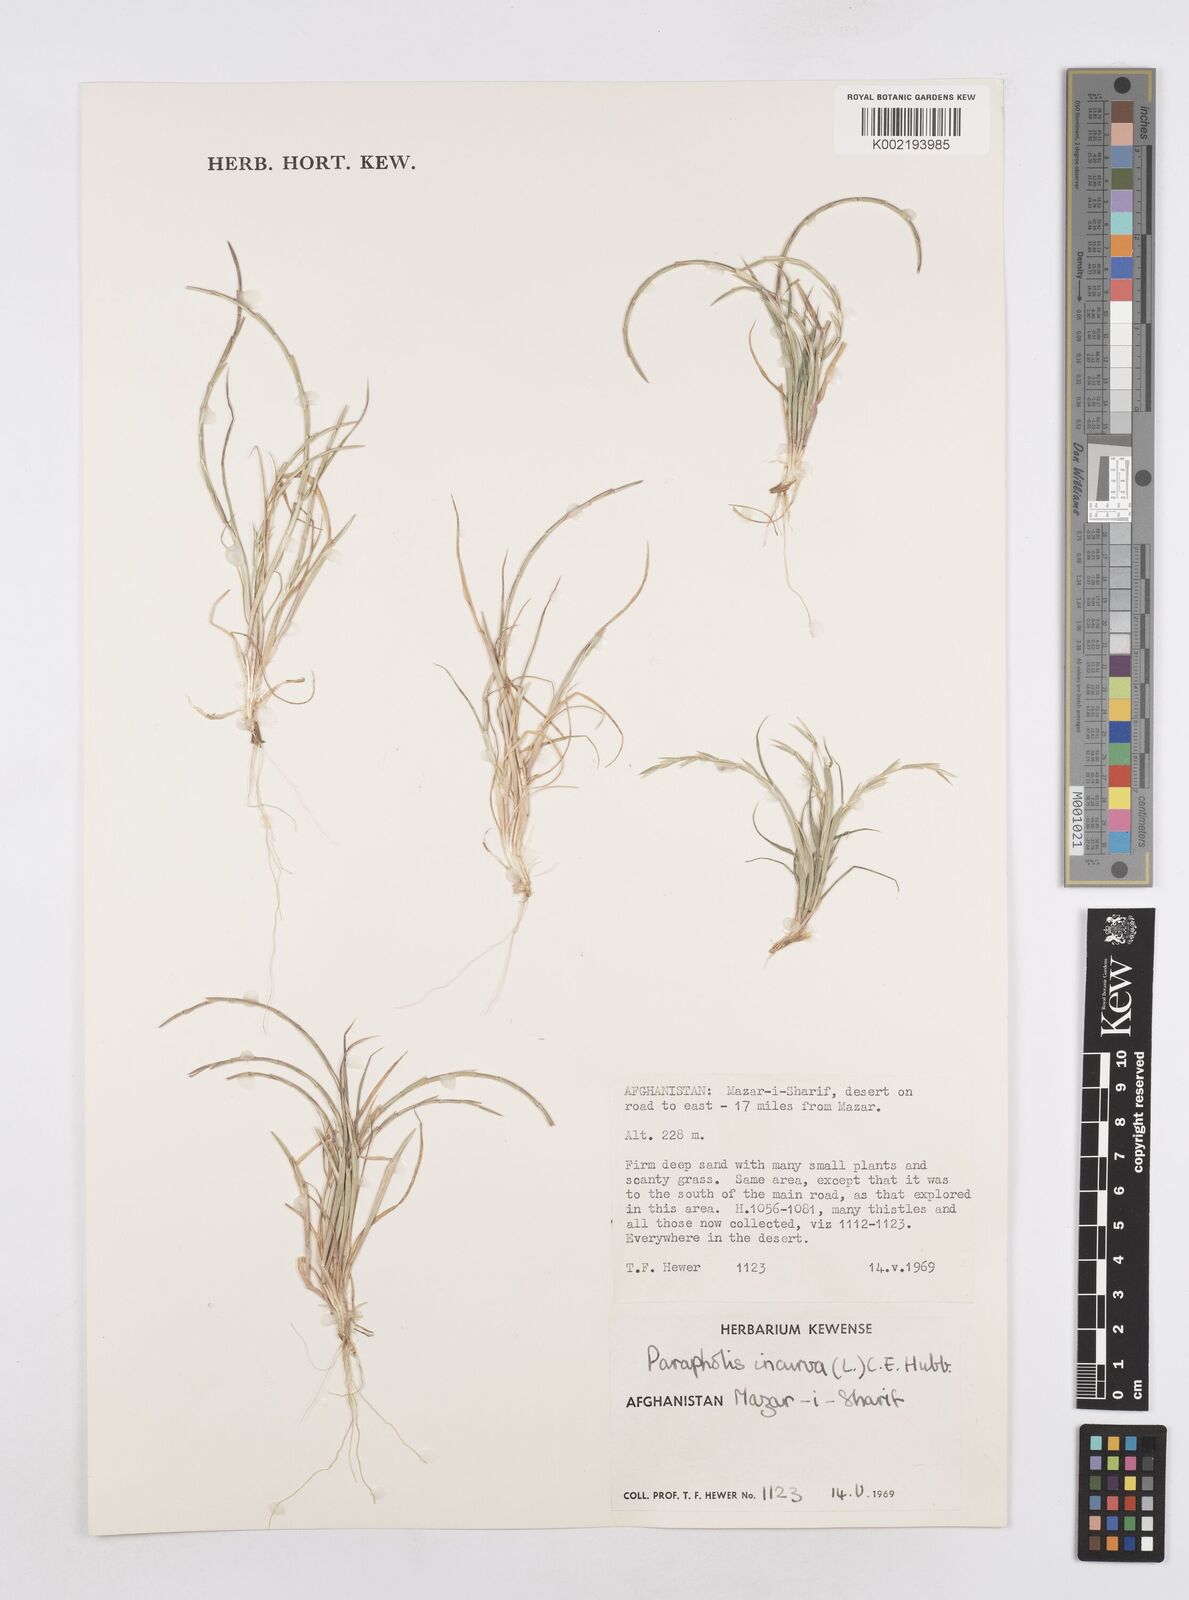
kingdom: Plantae
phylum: Tracheophyta
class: Liliopsida
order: Poales
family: Poaceae
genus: Parapholis
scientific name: Parapholis incurva
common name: Curved sicklegrass
